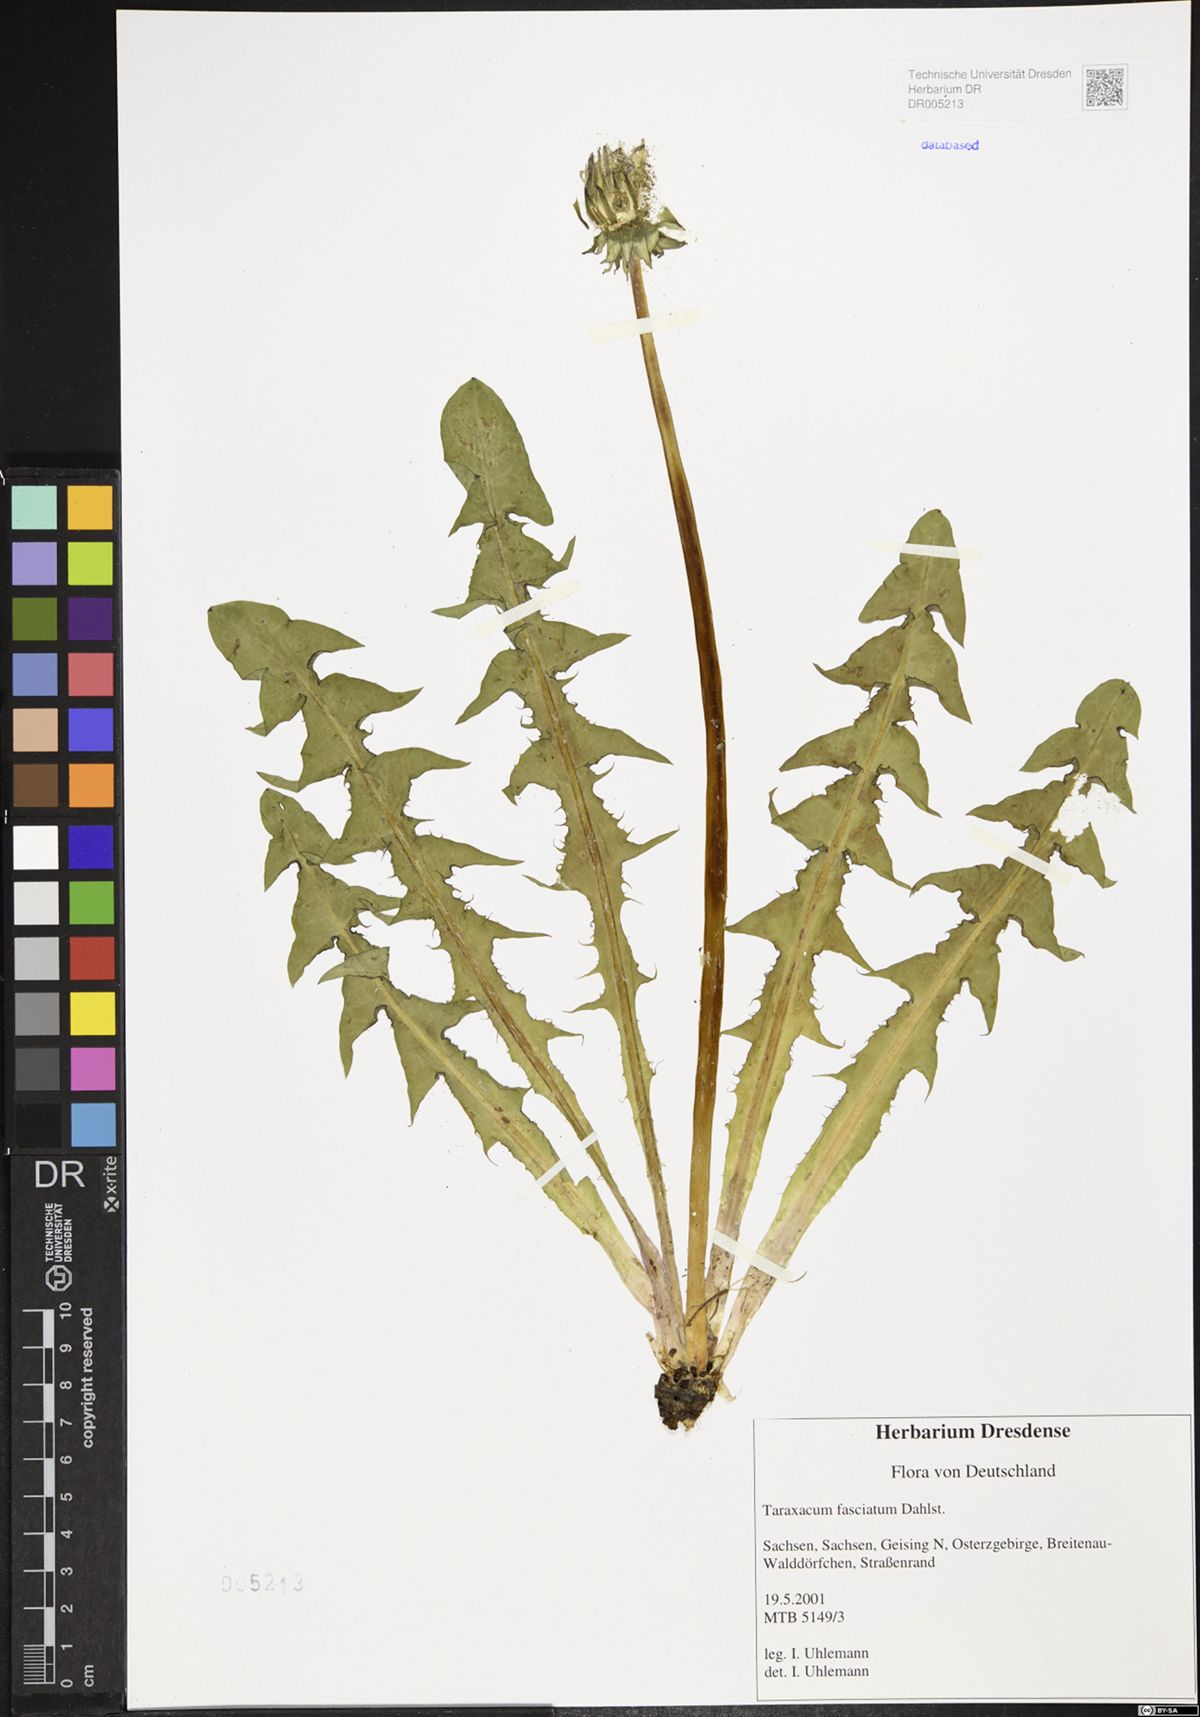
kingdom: Plantae
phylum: Tracheophyta
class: Magnoliopsida
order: Asterales
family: Asteraceae
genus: Taraxacum
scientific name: Taraxacum fasciatum
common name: Dense-bracted dandelion
